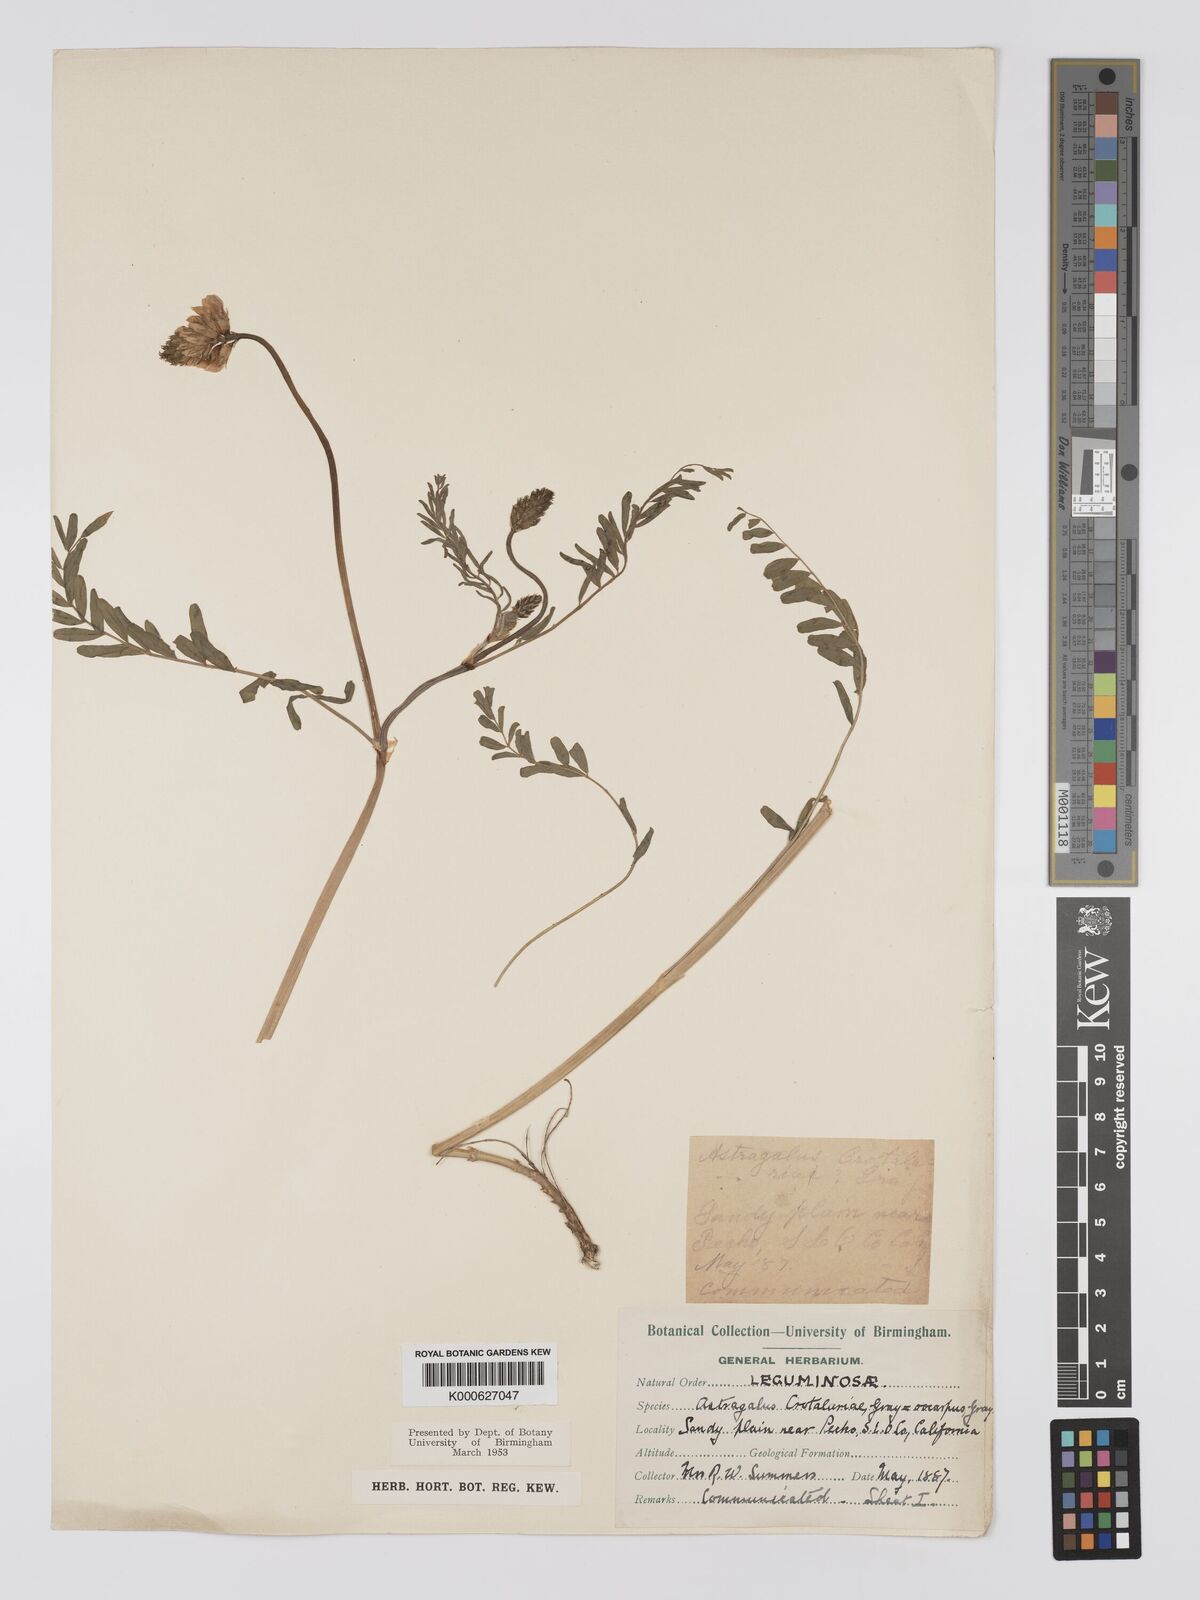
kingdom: Plantae
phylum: Tracheophyta
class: Magnoliopsida
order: Fabales
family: Fabaceae
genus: Astragalus
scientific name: Astragalus crotalariae
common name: Salton milkvetch
